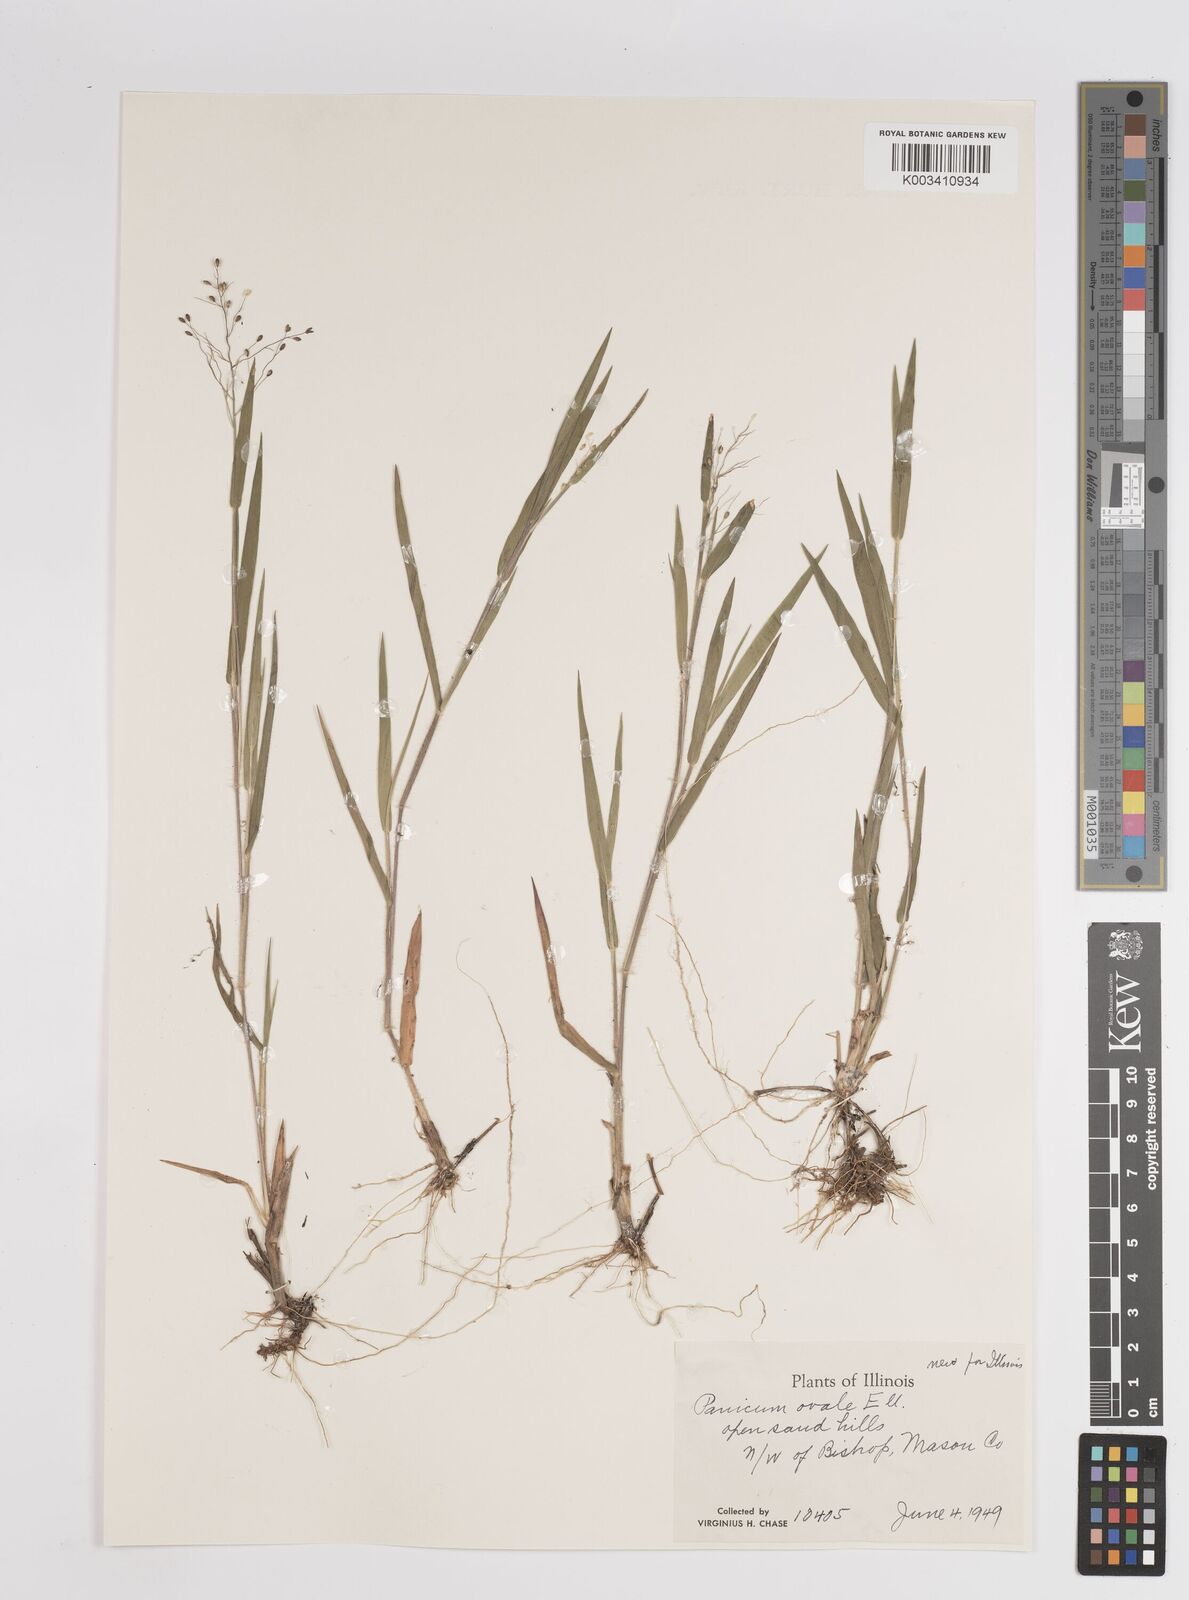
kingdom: Plantae
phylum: Tracheophyta
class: Liliopsida
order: Poales
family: Poaceae
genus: Dichanthelium
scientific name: Dichanthelium ovale
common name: Stiff-leaved panicgrass
